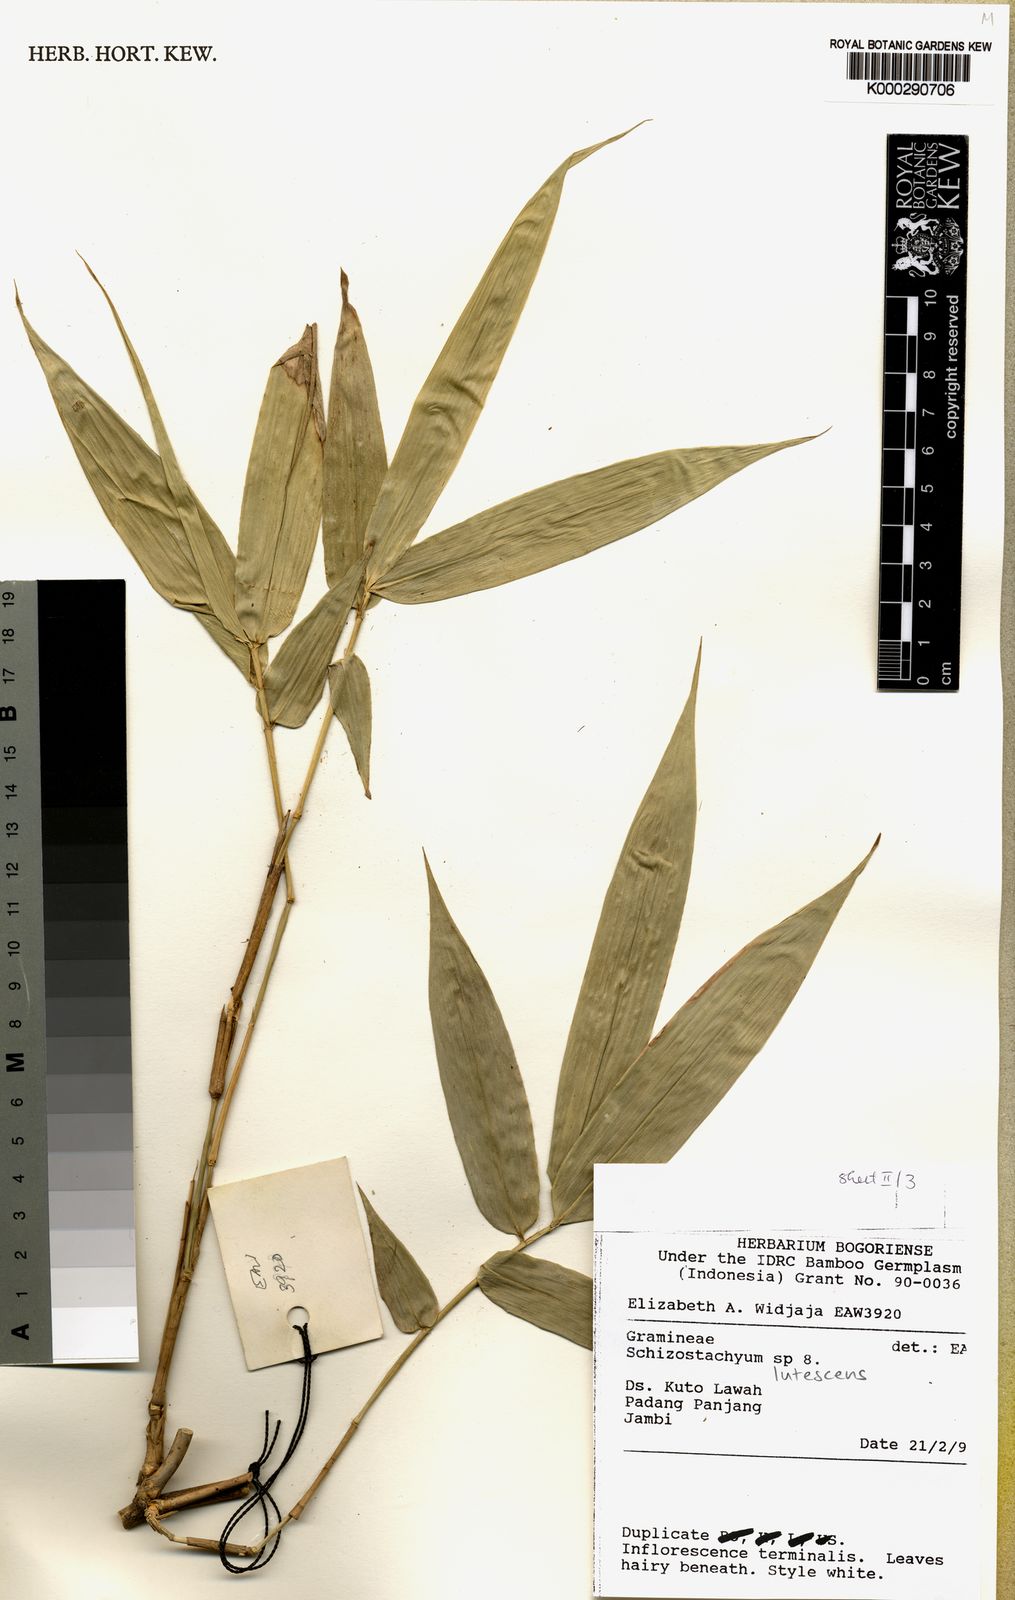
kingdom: Plantae
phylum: Tracheophyta
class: Liliopsida
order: Poales
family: Poaceae
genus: Schizostachyum
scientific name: Schizostachyum lutescens
